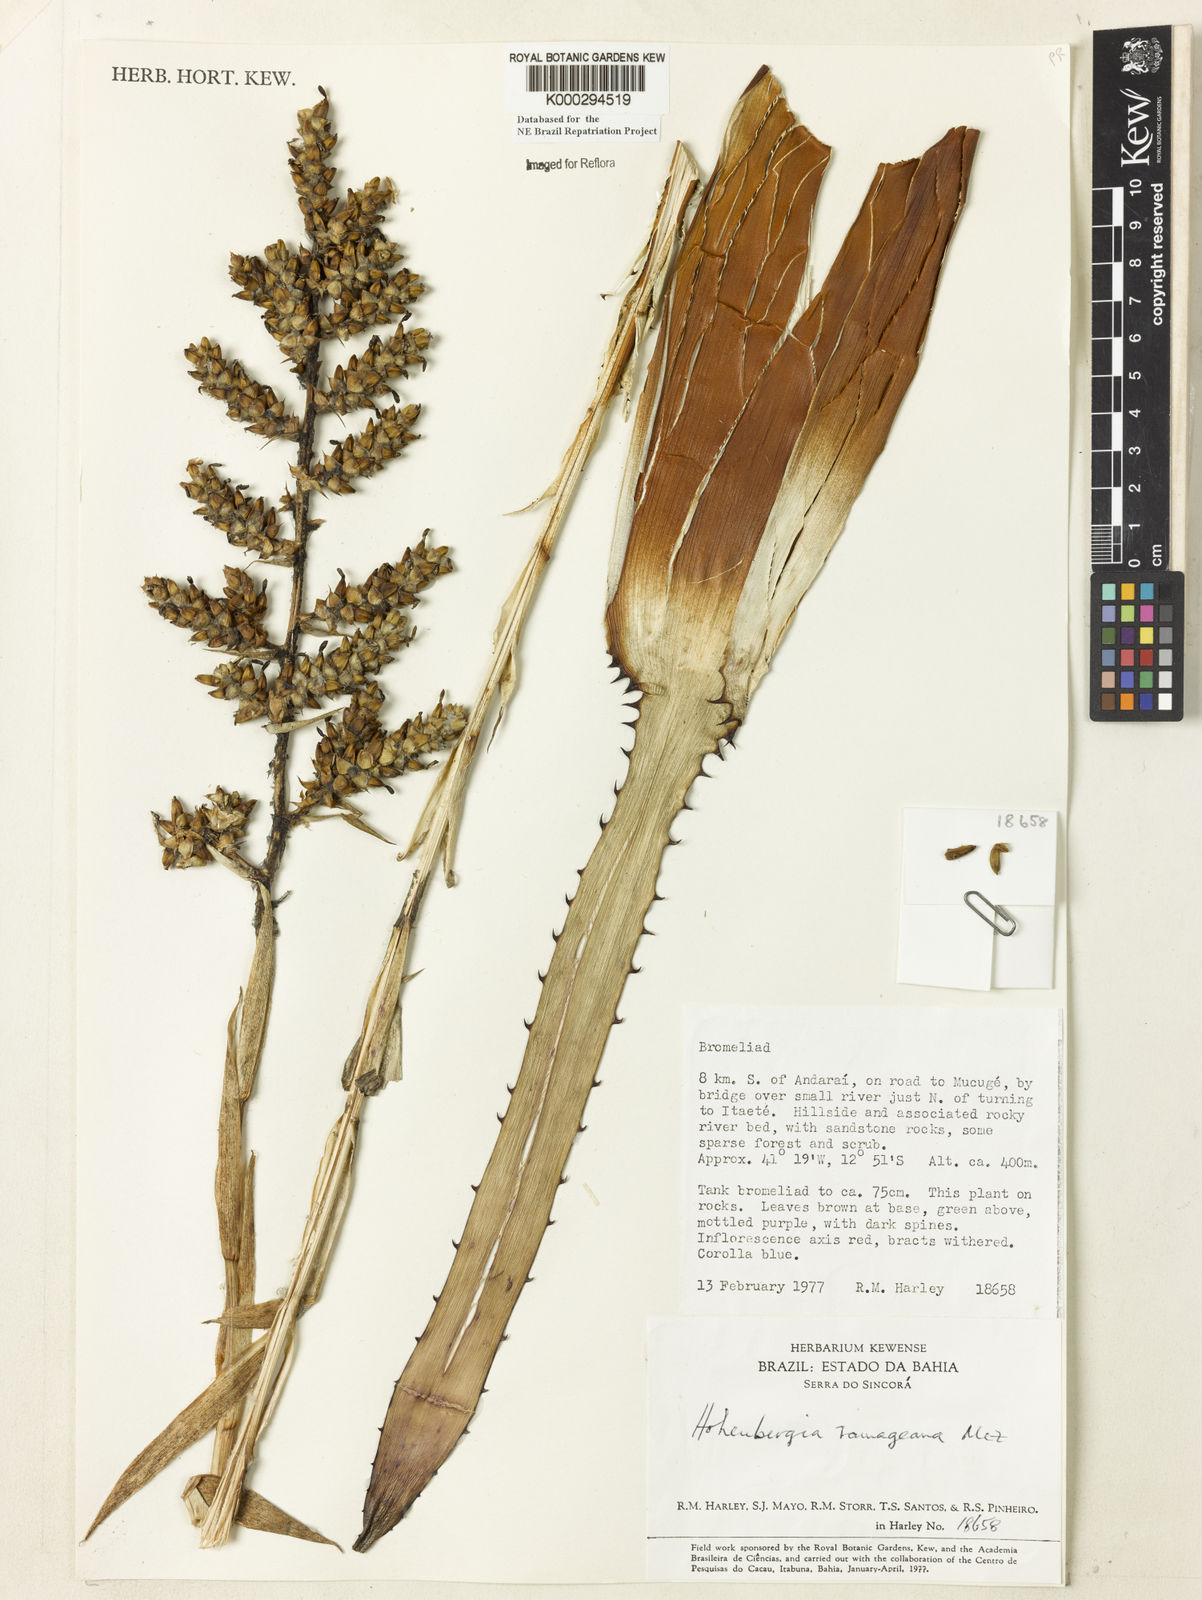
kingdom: Plantae
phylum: Tracheophyta
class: Liliopsida
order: Poales
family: Bromeliaceae
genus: Hohenbergia
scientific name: Hohenbergia ridleyi
